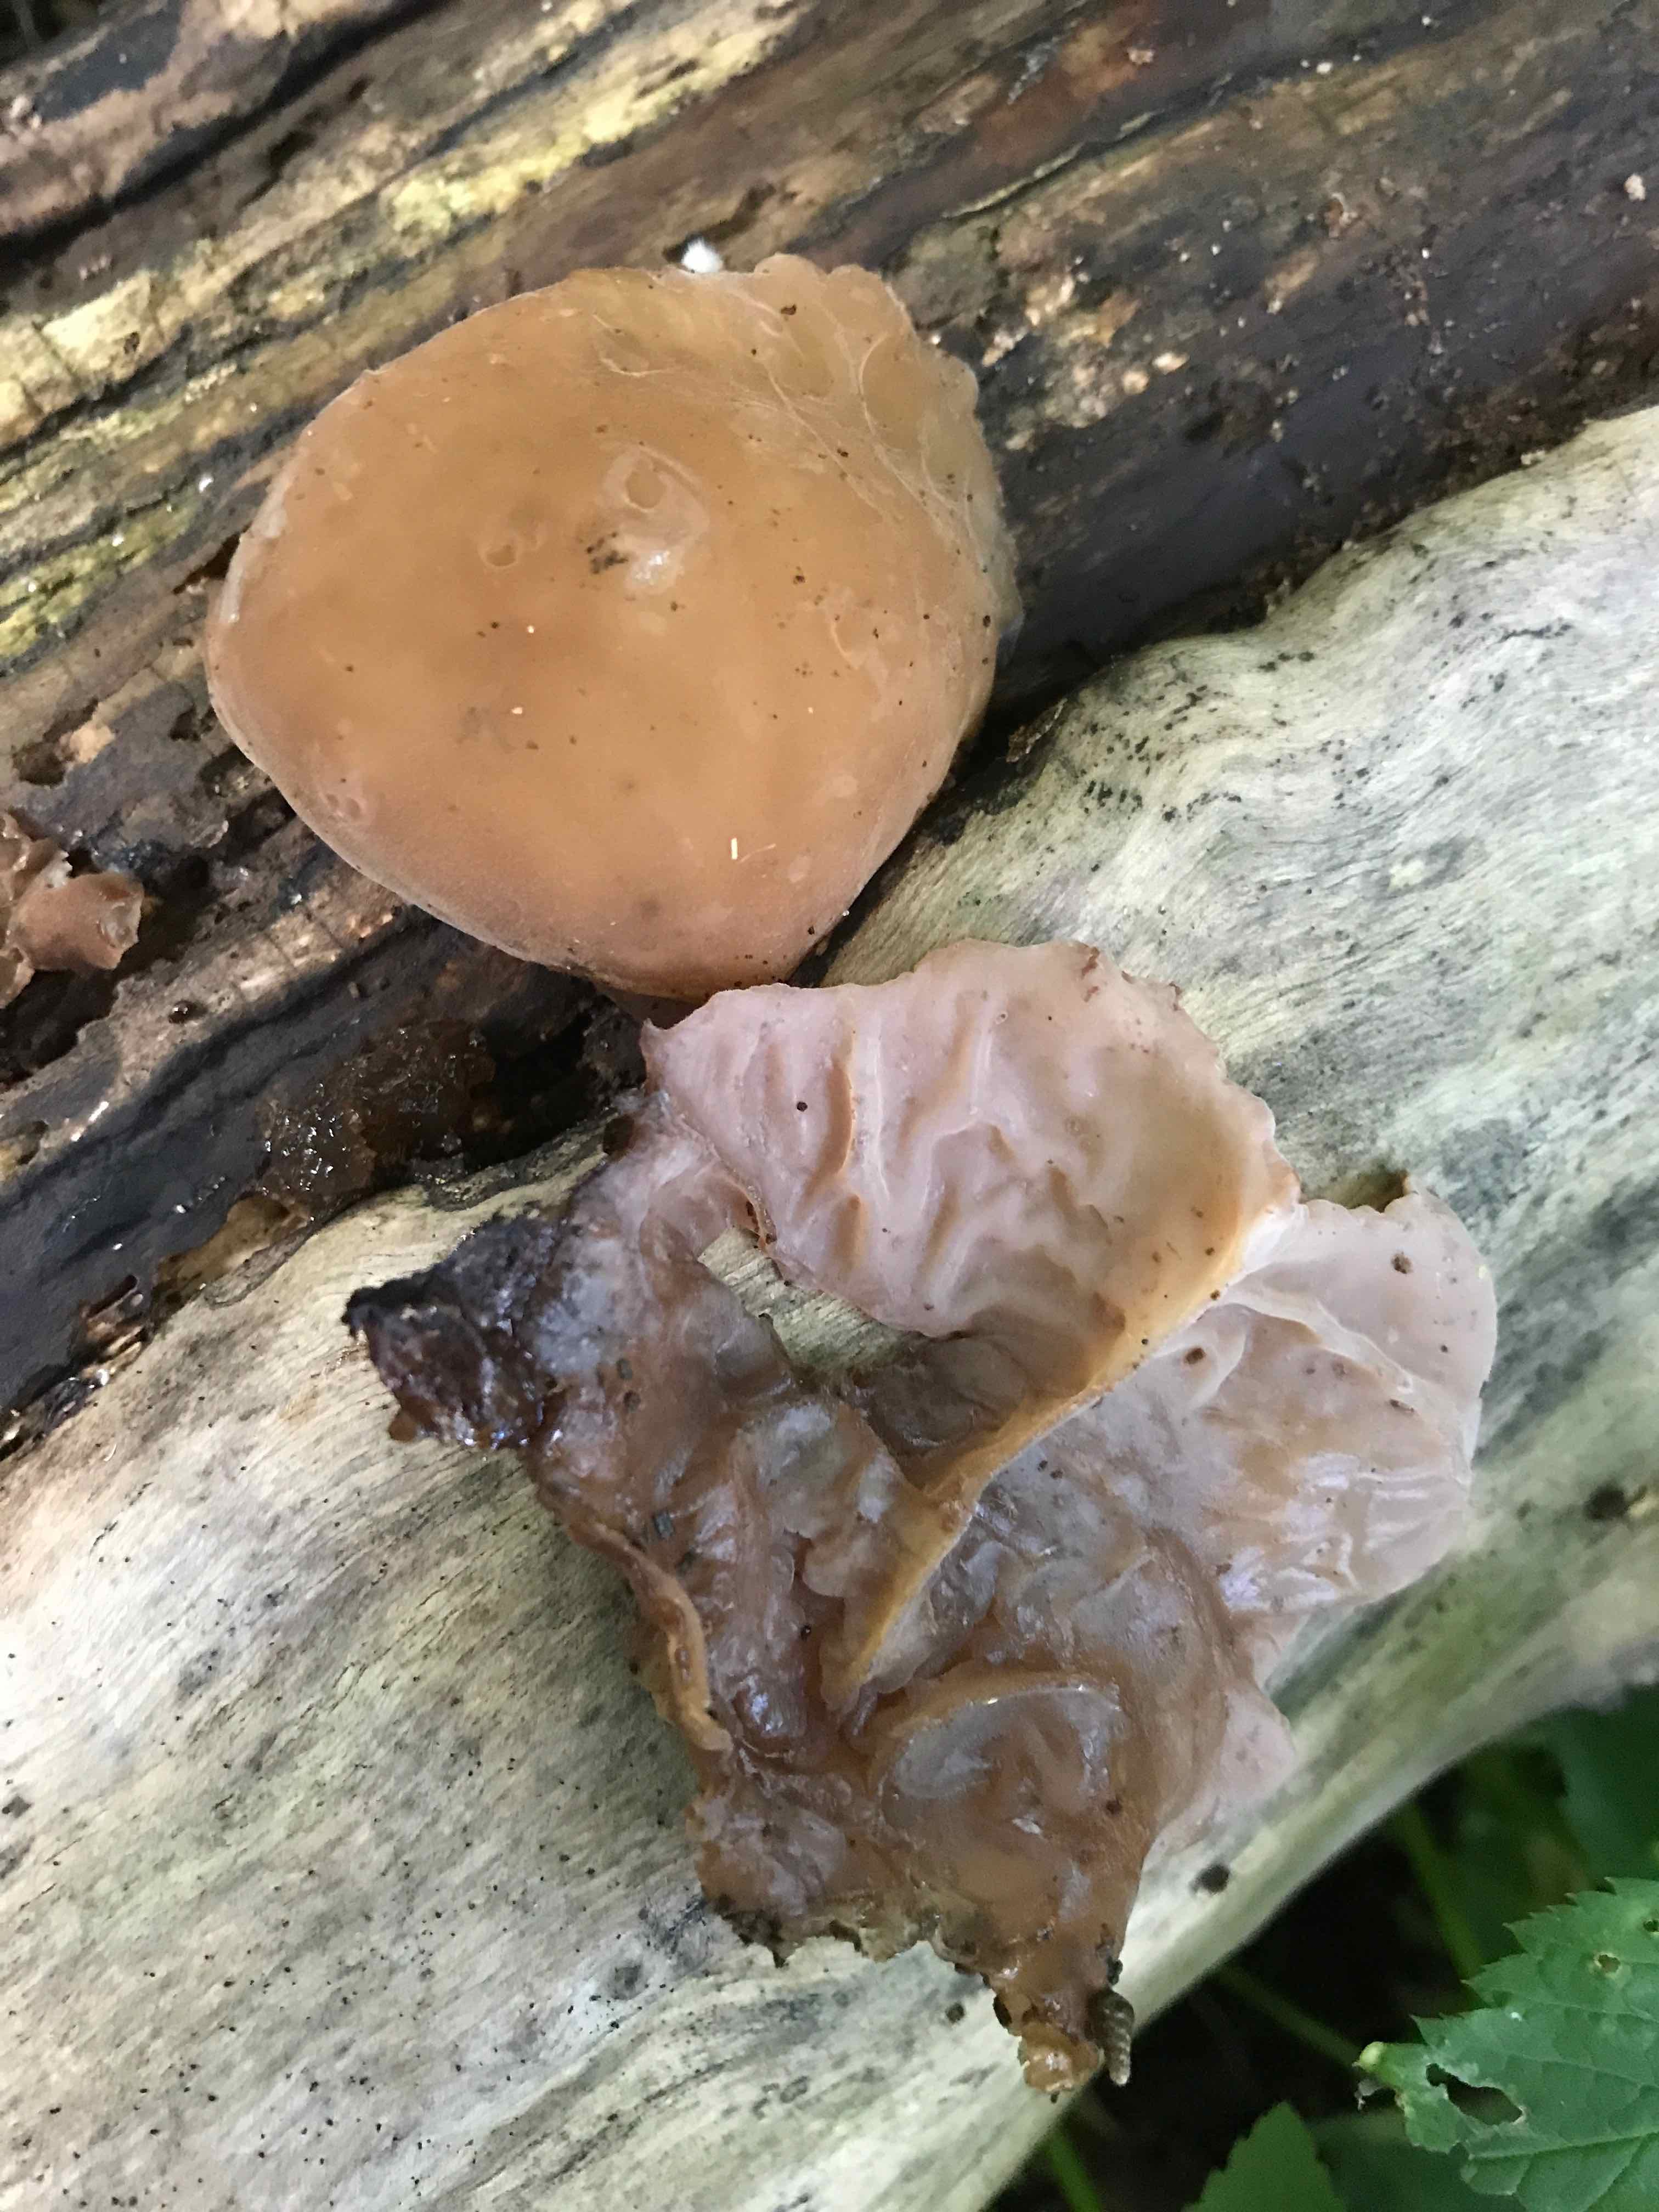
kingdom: Fungi
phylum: Basidiomycota
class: Agaricomycetes
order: Auriculariales
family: Auriculariaceae
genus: Auricularia
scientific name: Auricularia auricula-judae
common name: almindelig judasøre
